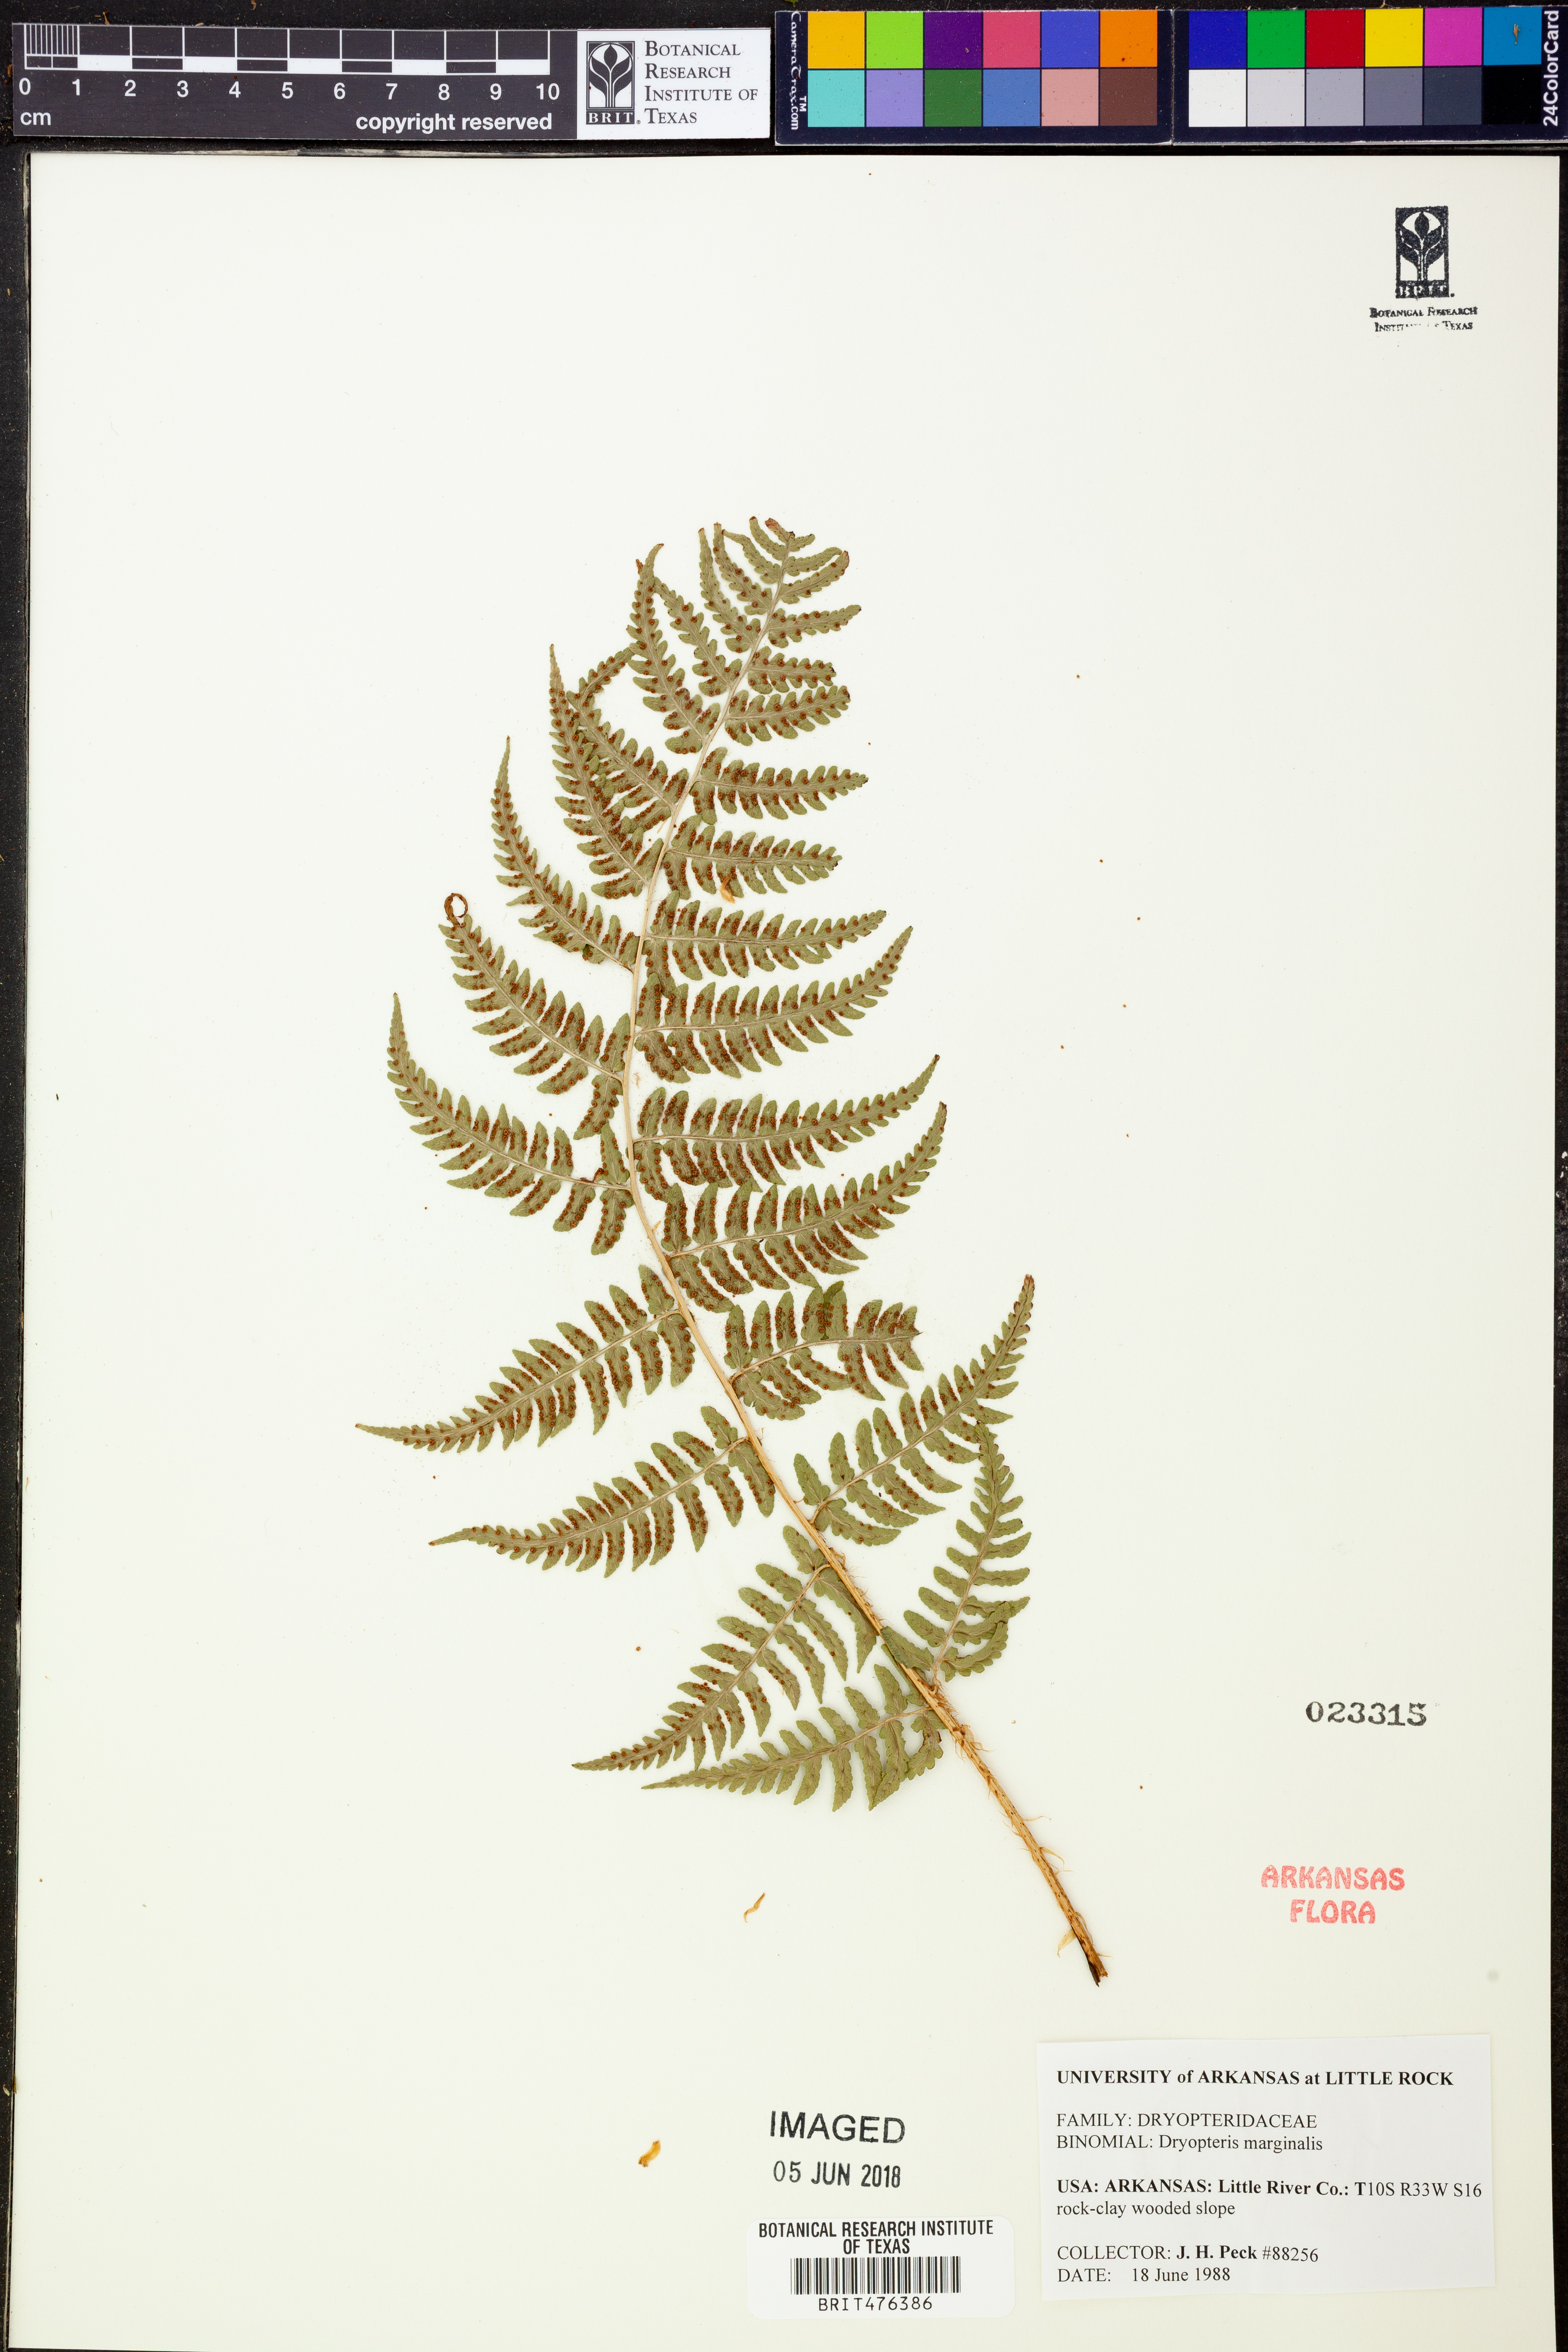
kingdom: Plantae
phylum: Tracheophyta
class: Polypodiopsida
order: Polypodiales
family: Dryopteridaceae
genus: Dryopteris
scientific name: Dryopteris marginalis
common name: Marginal wood fern
